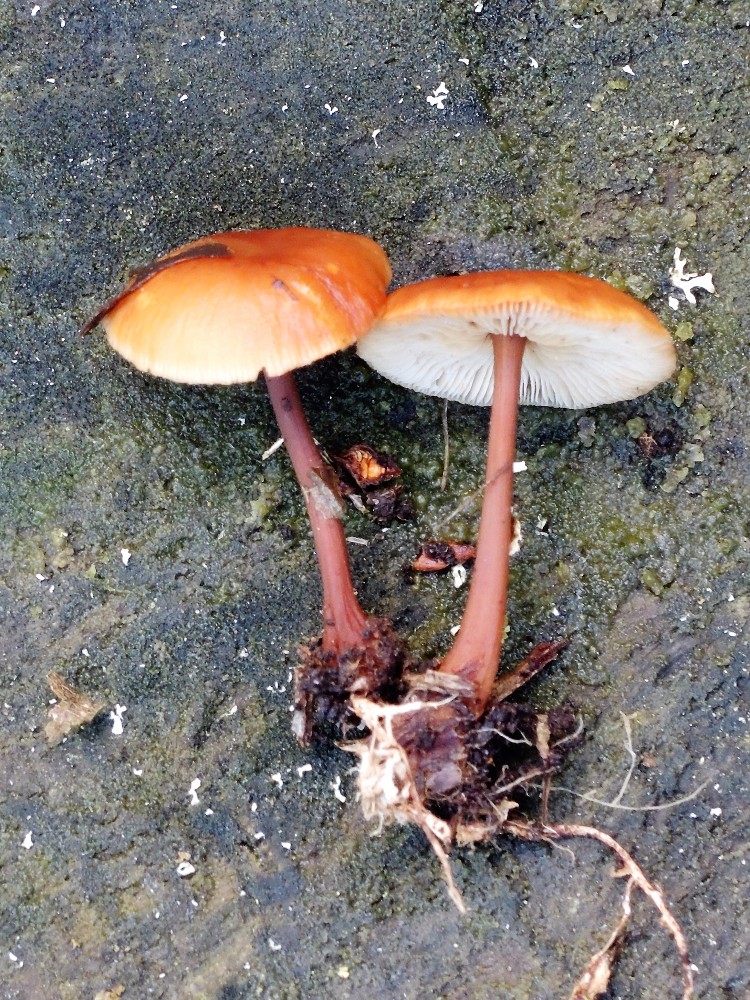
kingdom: Fungi
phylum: Basidiomycota
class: Agaricomycetes
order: Agaricales
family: Omphalotaceae
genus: Gymnopus
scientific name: Gymnopus erythropus
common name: rødstokket fladhat
